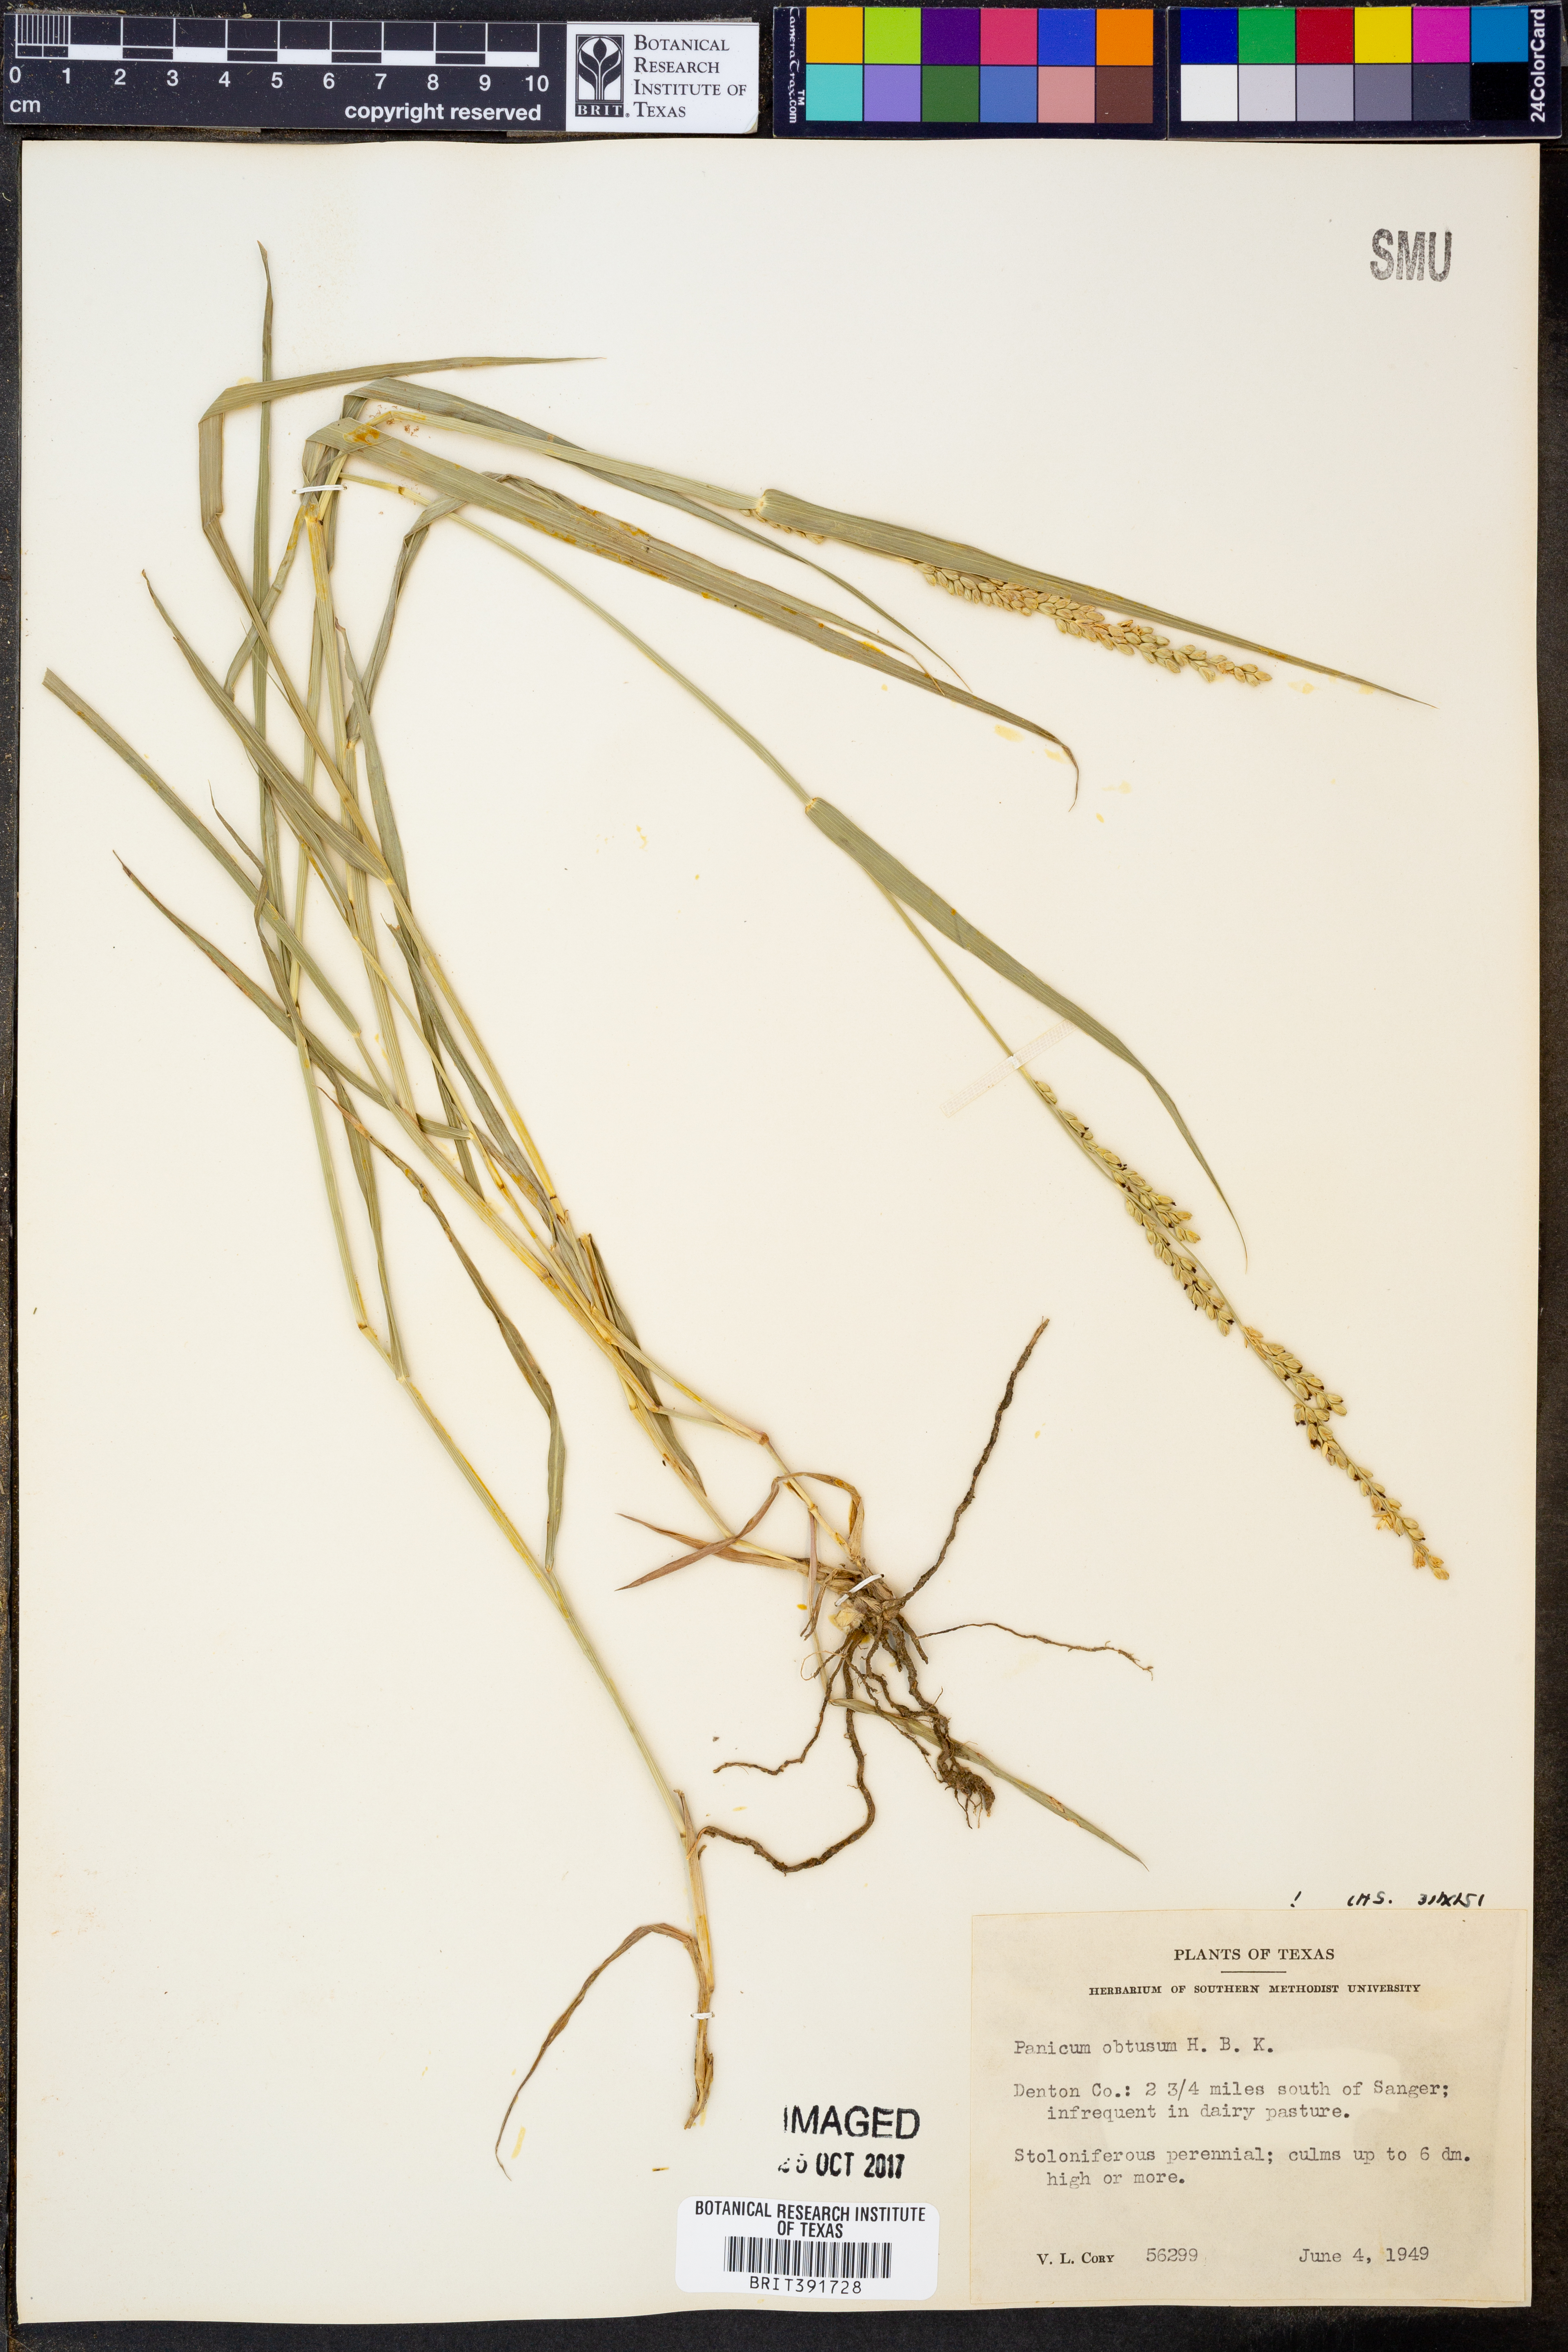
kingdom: Plantae
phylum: Tracheophyta
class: Liliopsida
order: Poales
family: Poaceae
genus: Hopia
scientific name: Hopia obtusa
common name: Vine-mesquite
